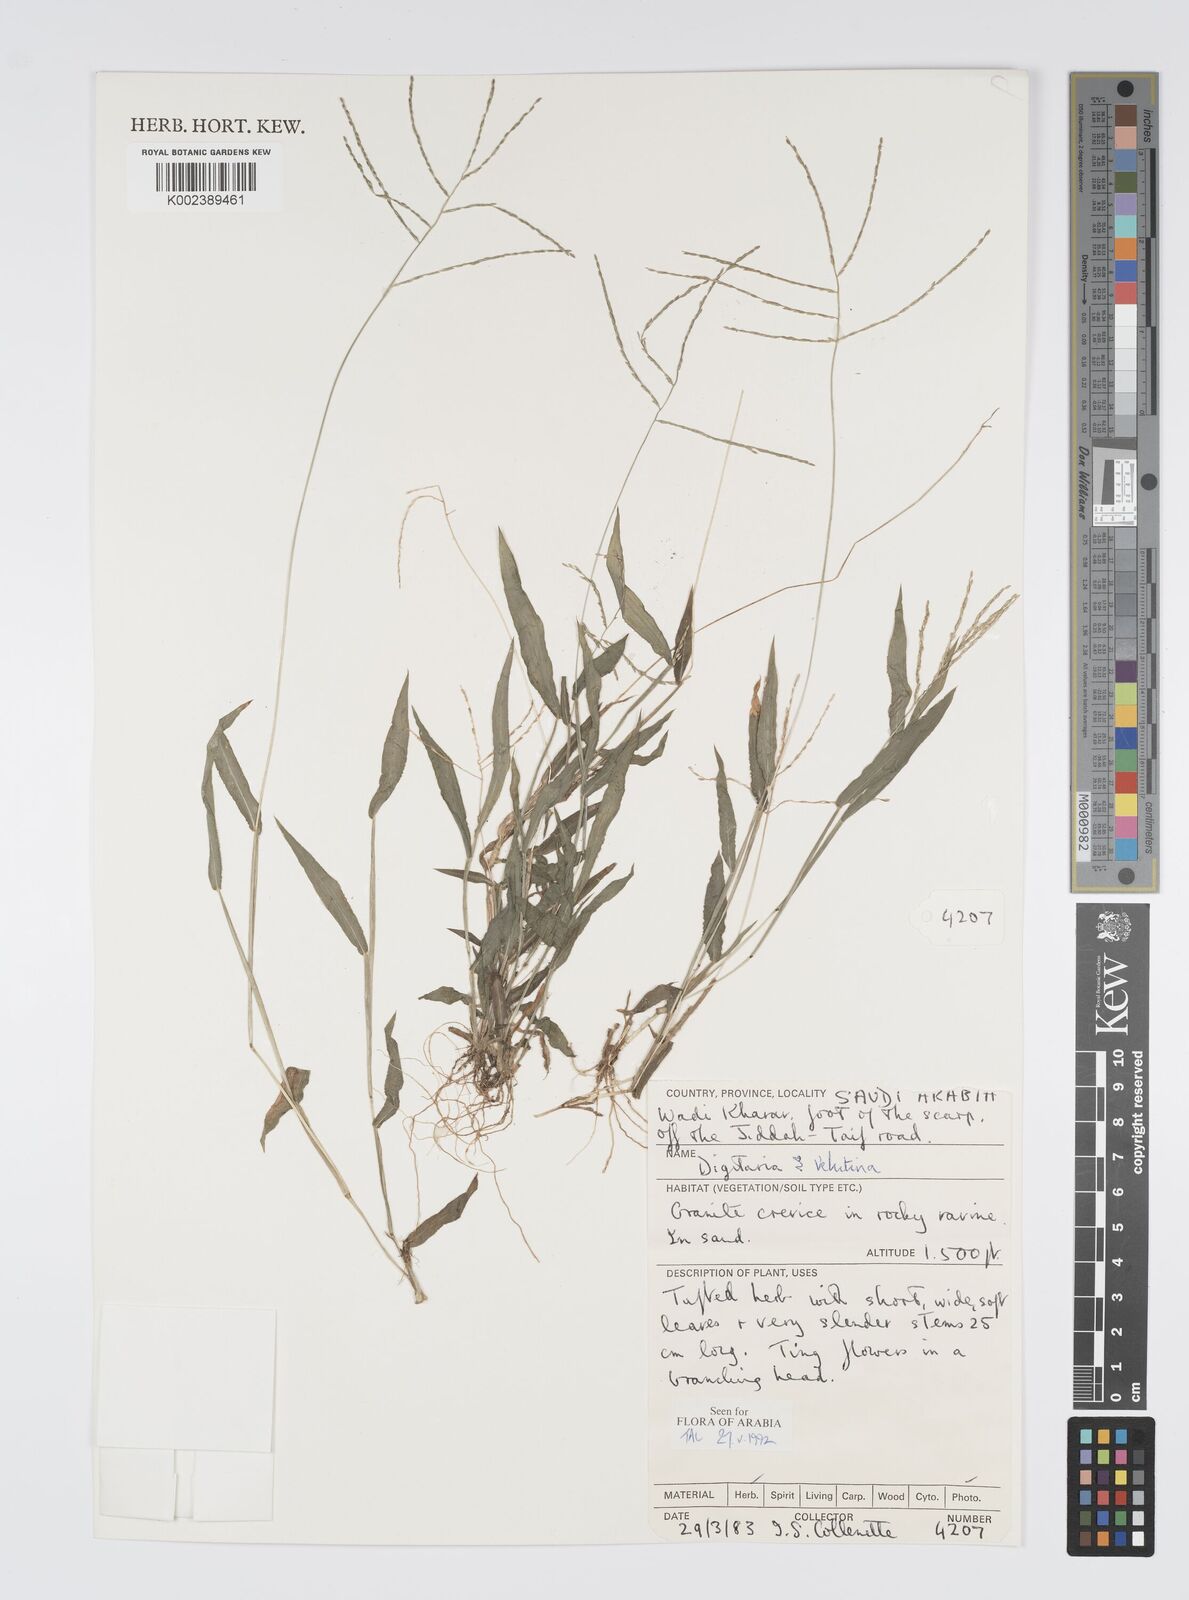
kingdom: Plantae
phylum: Tracheophyta
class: Liliopsida
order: Poales
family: Poaceae
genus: Digitaria
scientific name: Digitaria spec
